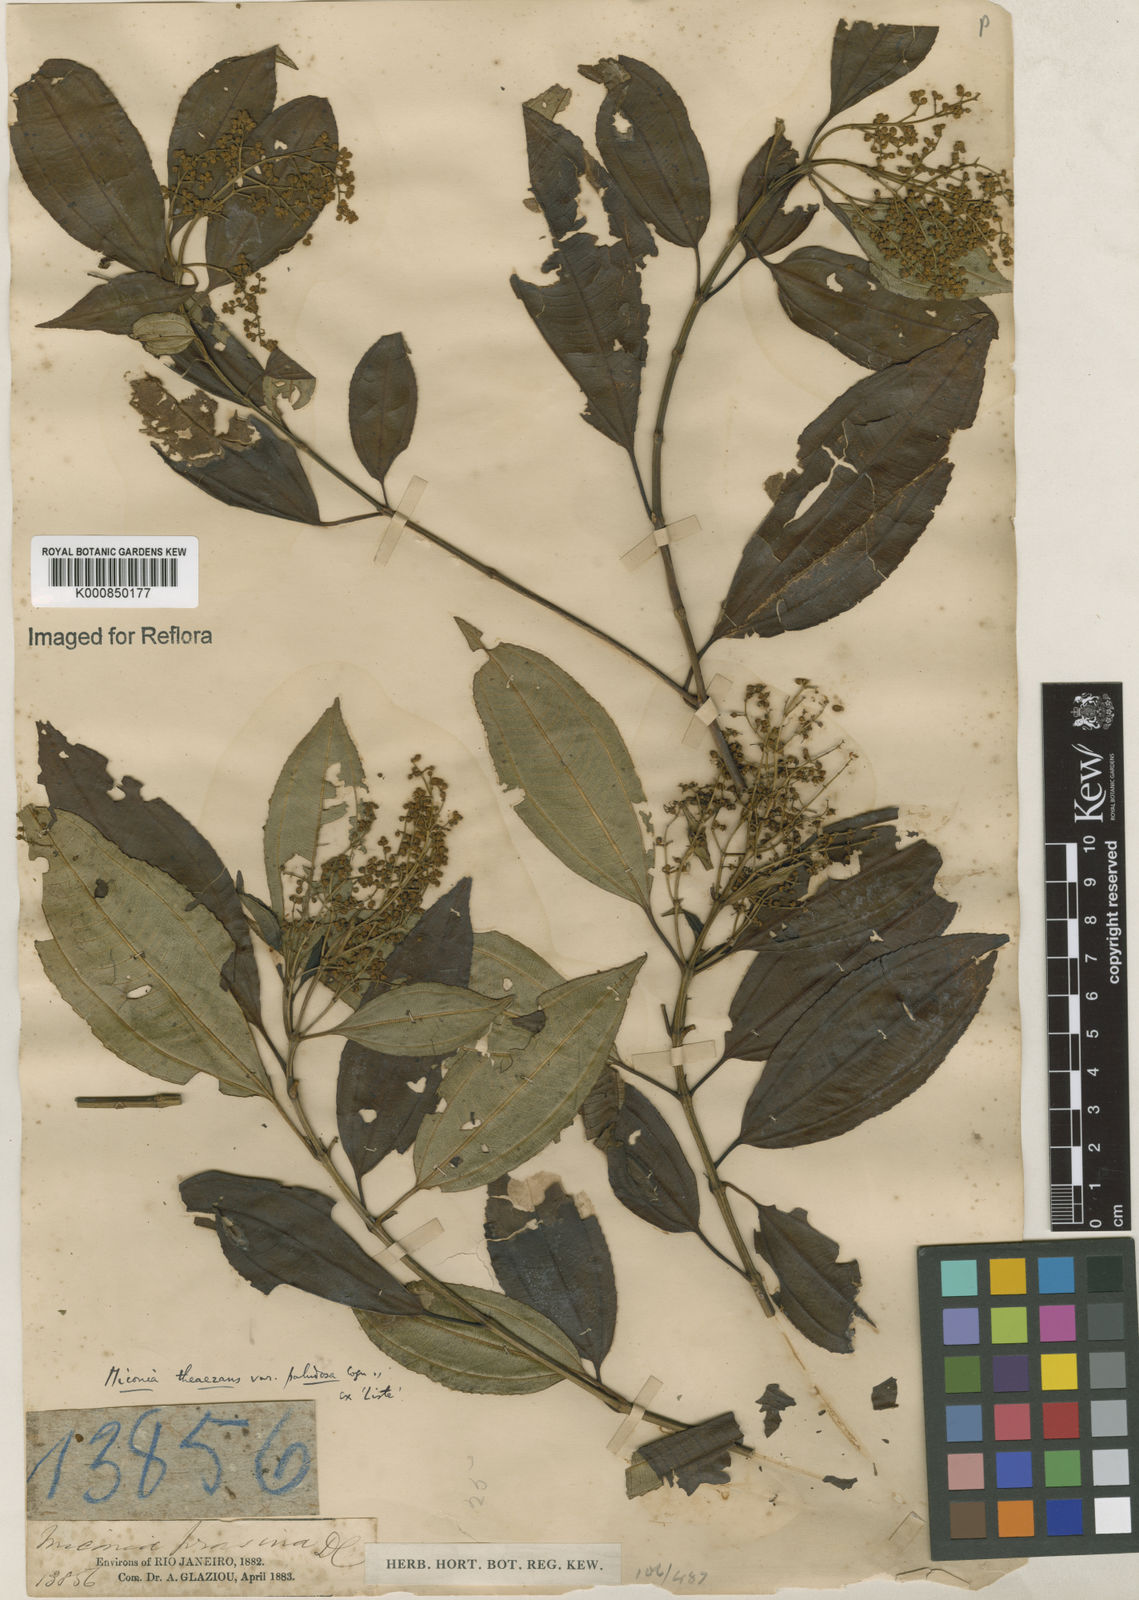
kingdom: Plantae
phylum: Tracheophyta
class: Magnoliopsida
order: Myrtales
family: Melastomataceae
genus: Miconia
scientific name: Miconia
